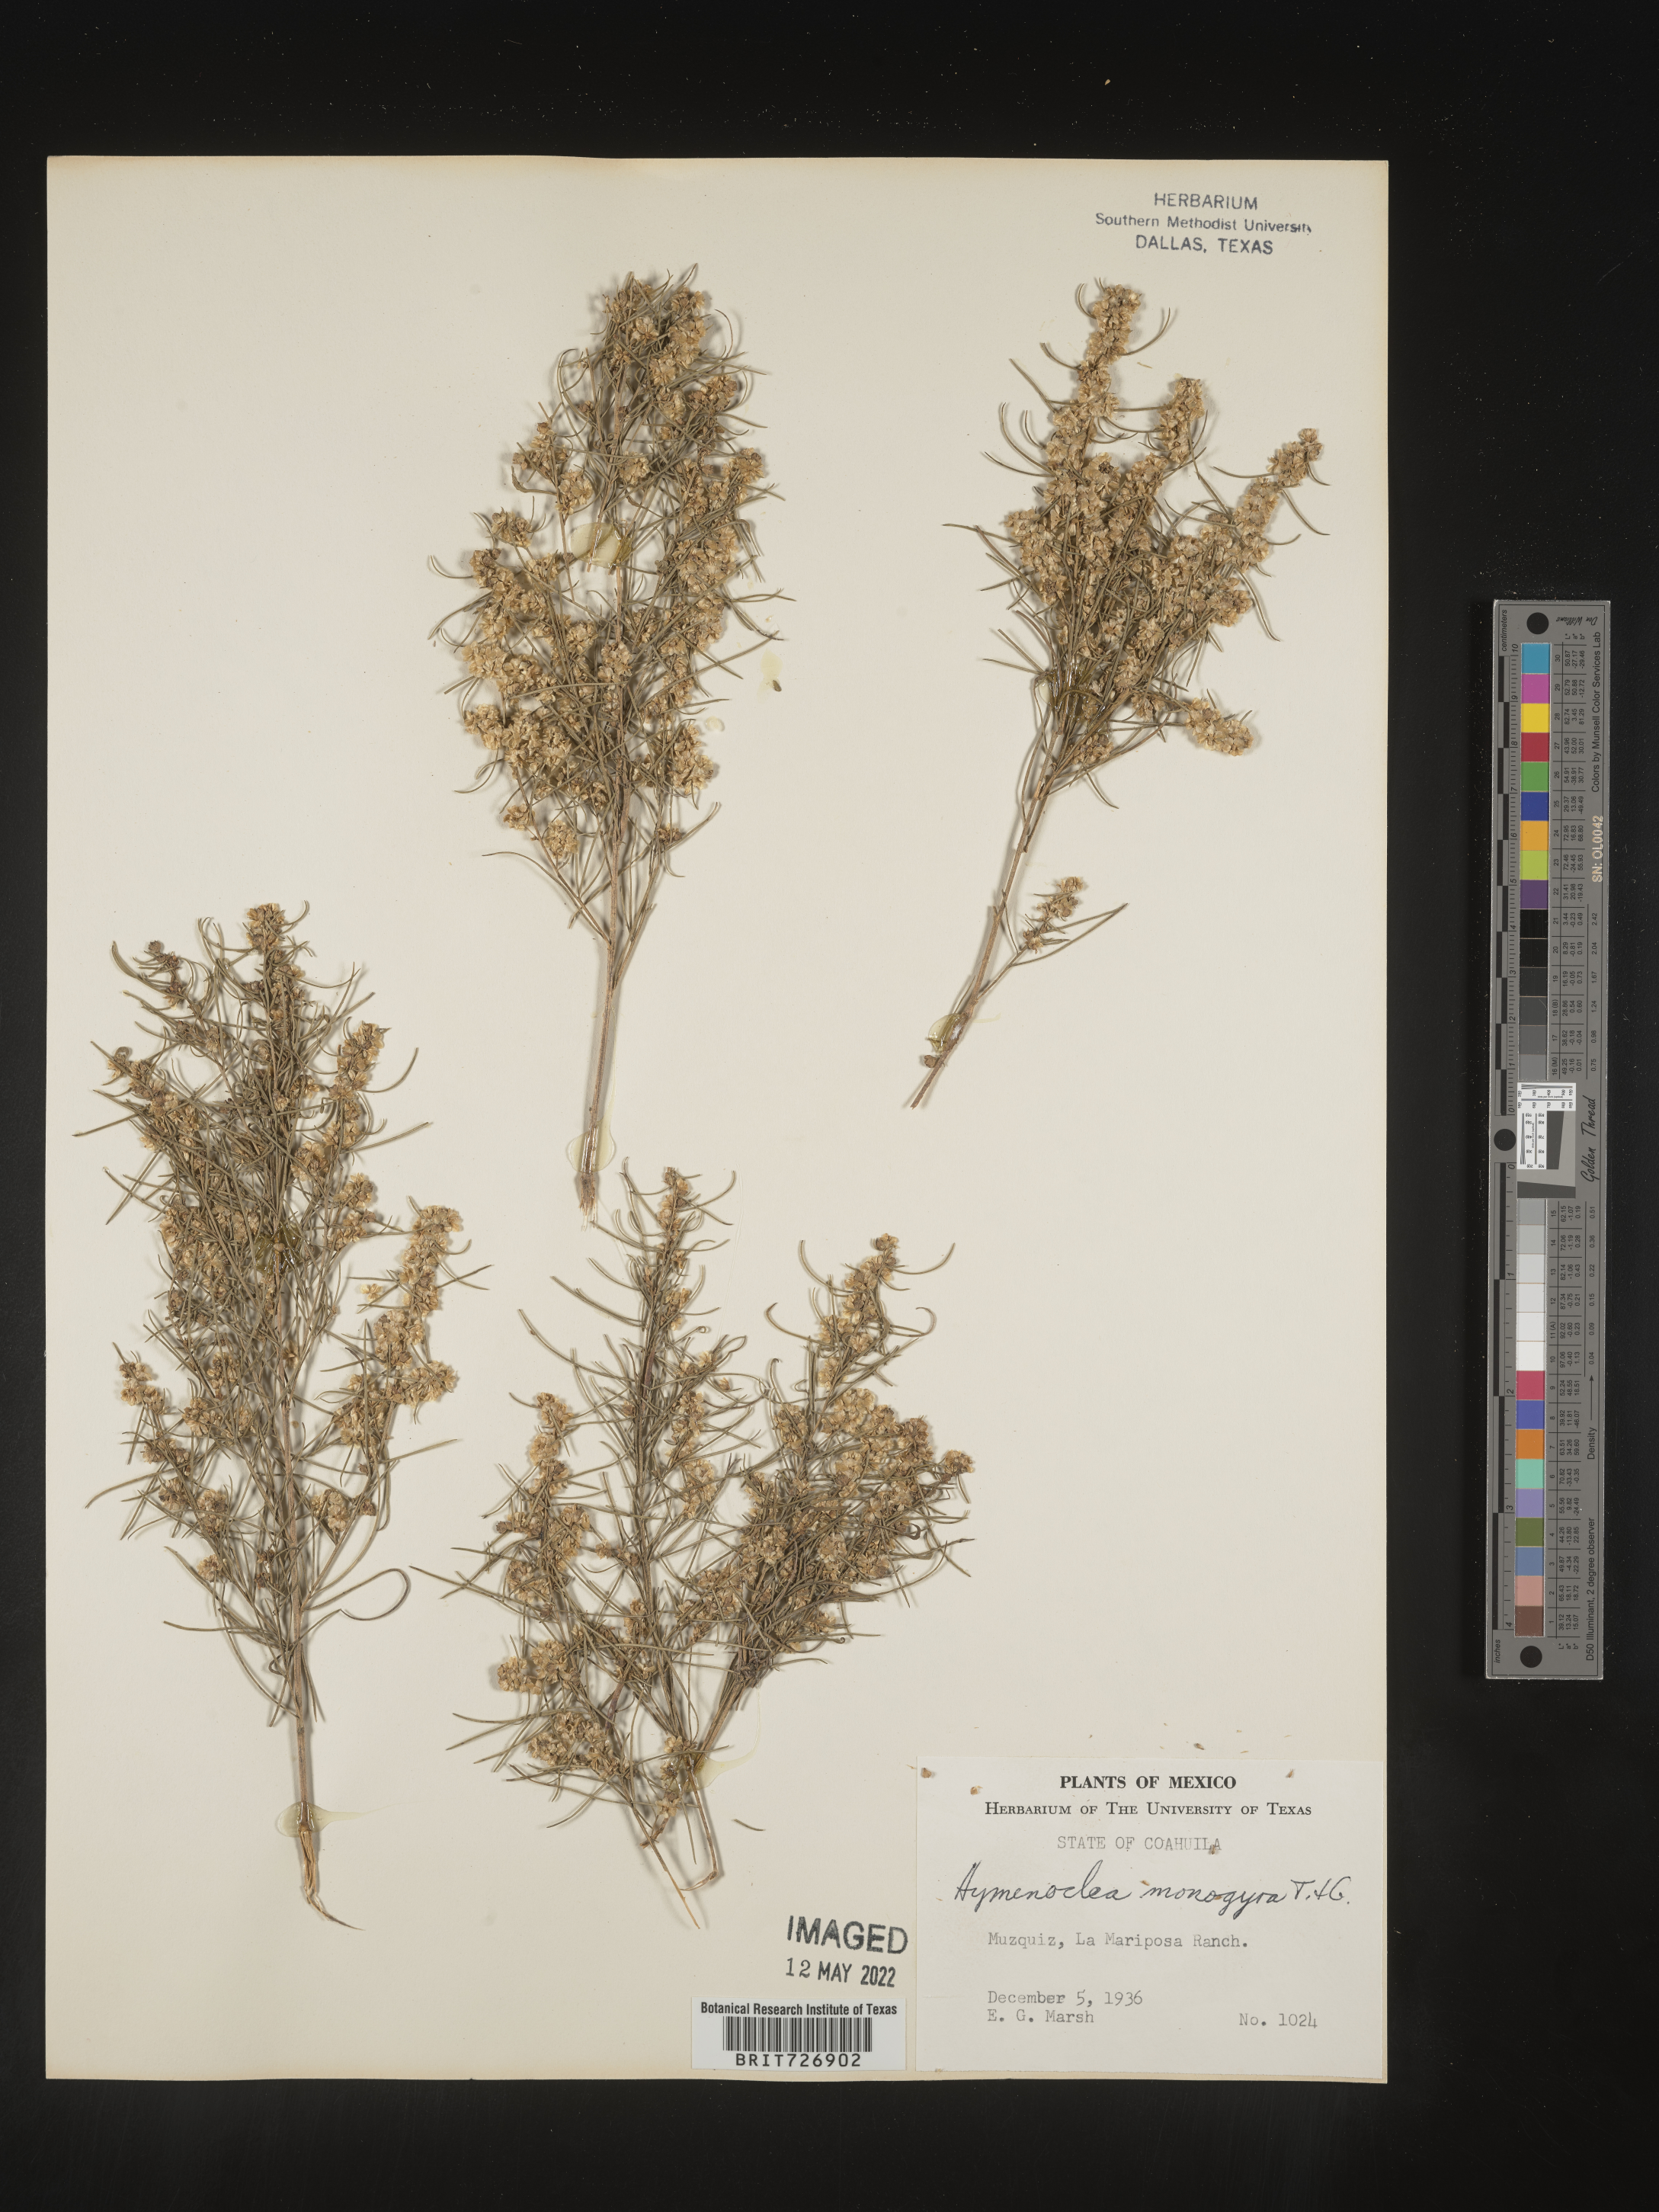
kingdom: Plantae
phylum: Tracheophyta
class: Magnoliopsida
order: Asterales
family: Asteraceae
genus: Ambrosia
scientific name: Ambrosia monogyra
